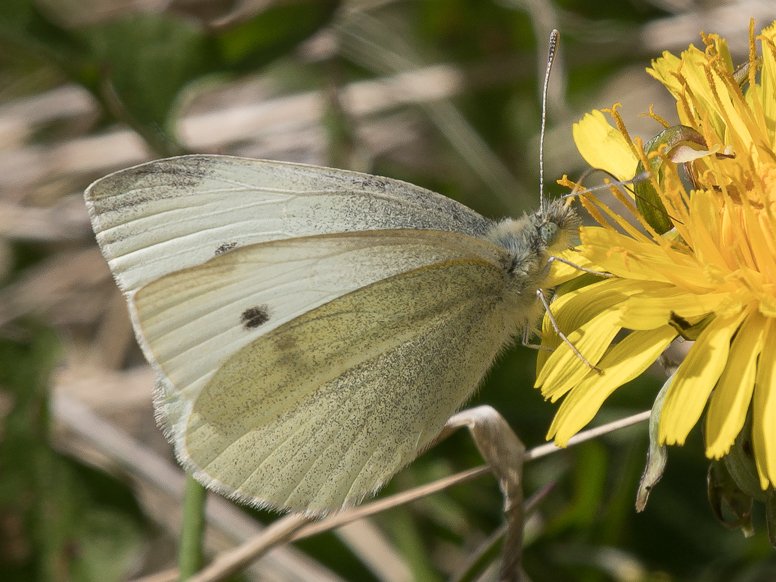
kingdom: Animalia
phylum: Arthropoda
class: Insecta
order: Lepidoptera
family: Pieridae
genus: Pieris
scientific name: Pieris rapae
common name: Cabbage White
